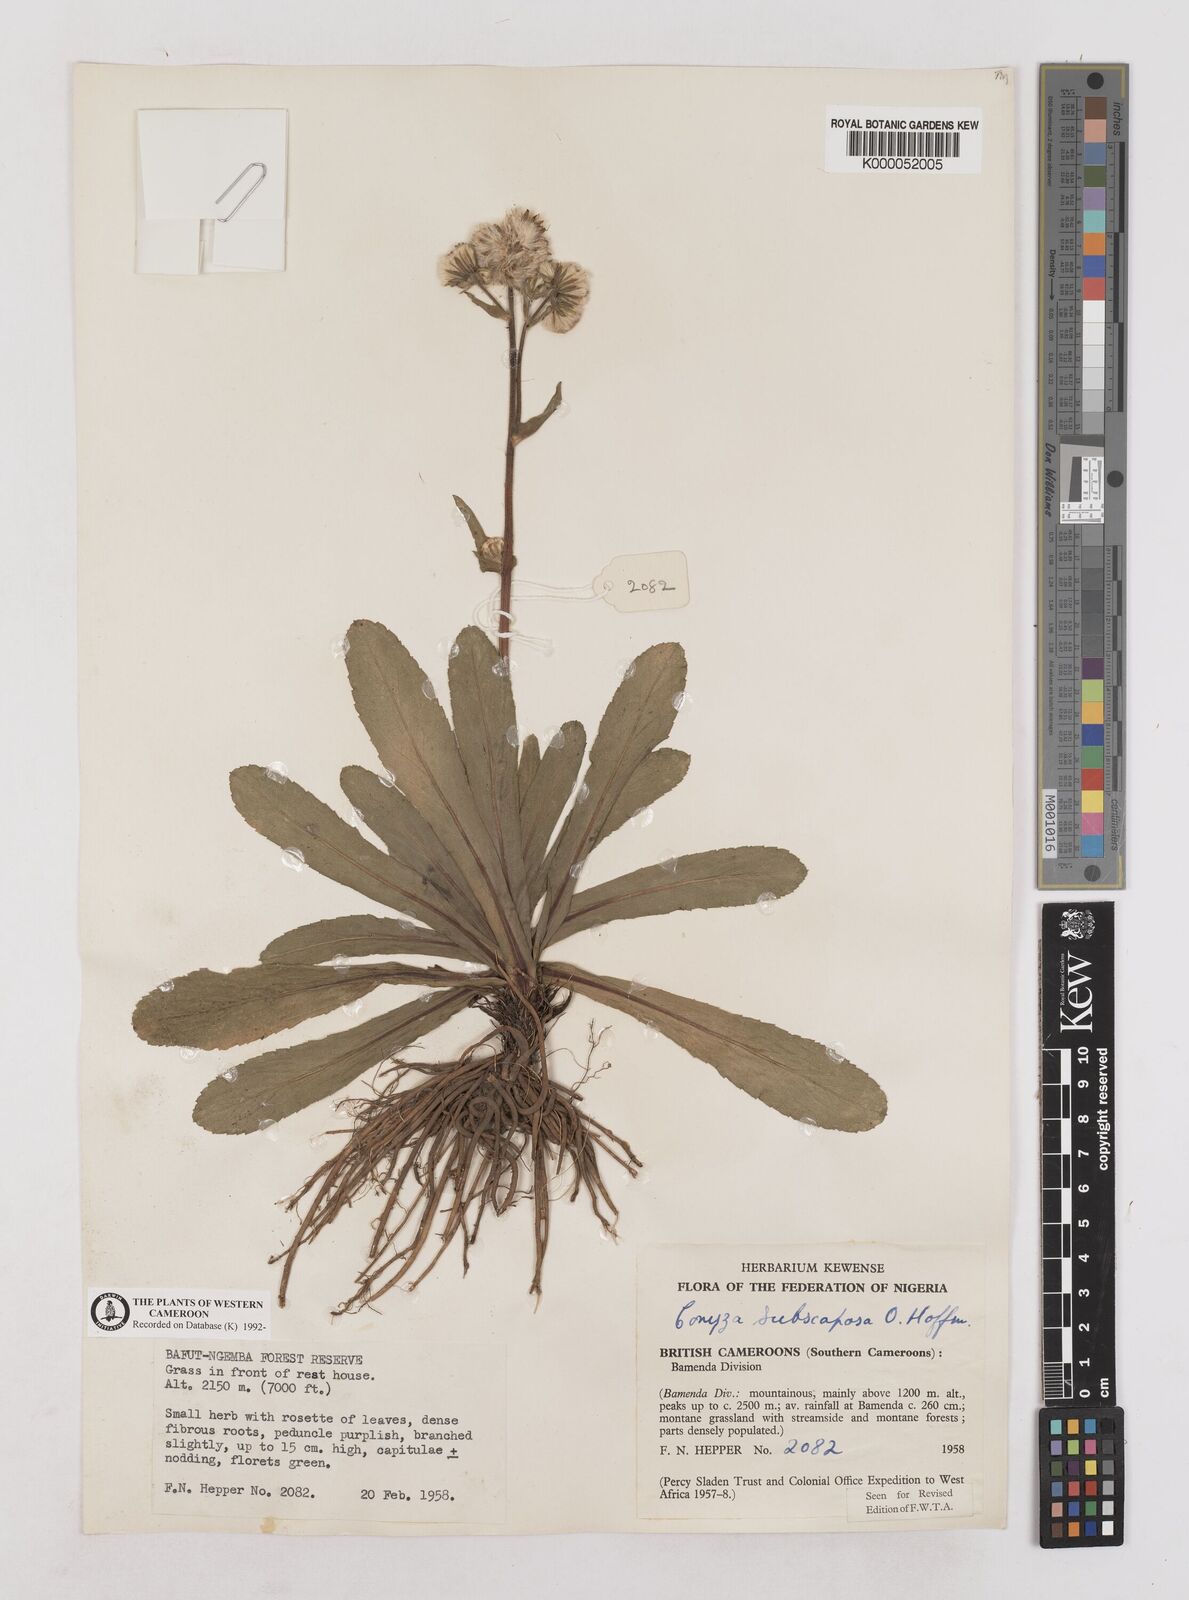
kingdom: Plantae
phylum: Tracheophyta
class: Magnoliopsida
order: Asterales
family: Asteraceae
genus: Eschenbachia
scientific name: Eschenbachia subscaposa
